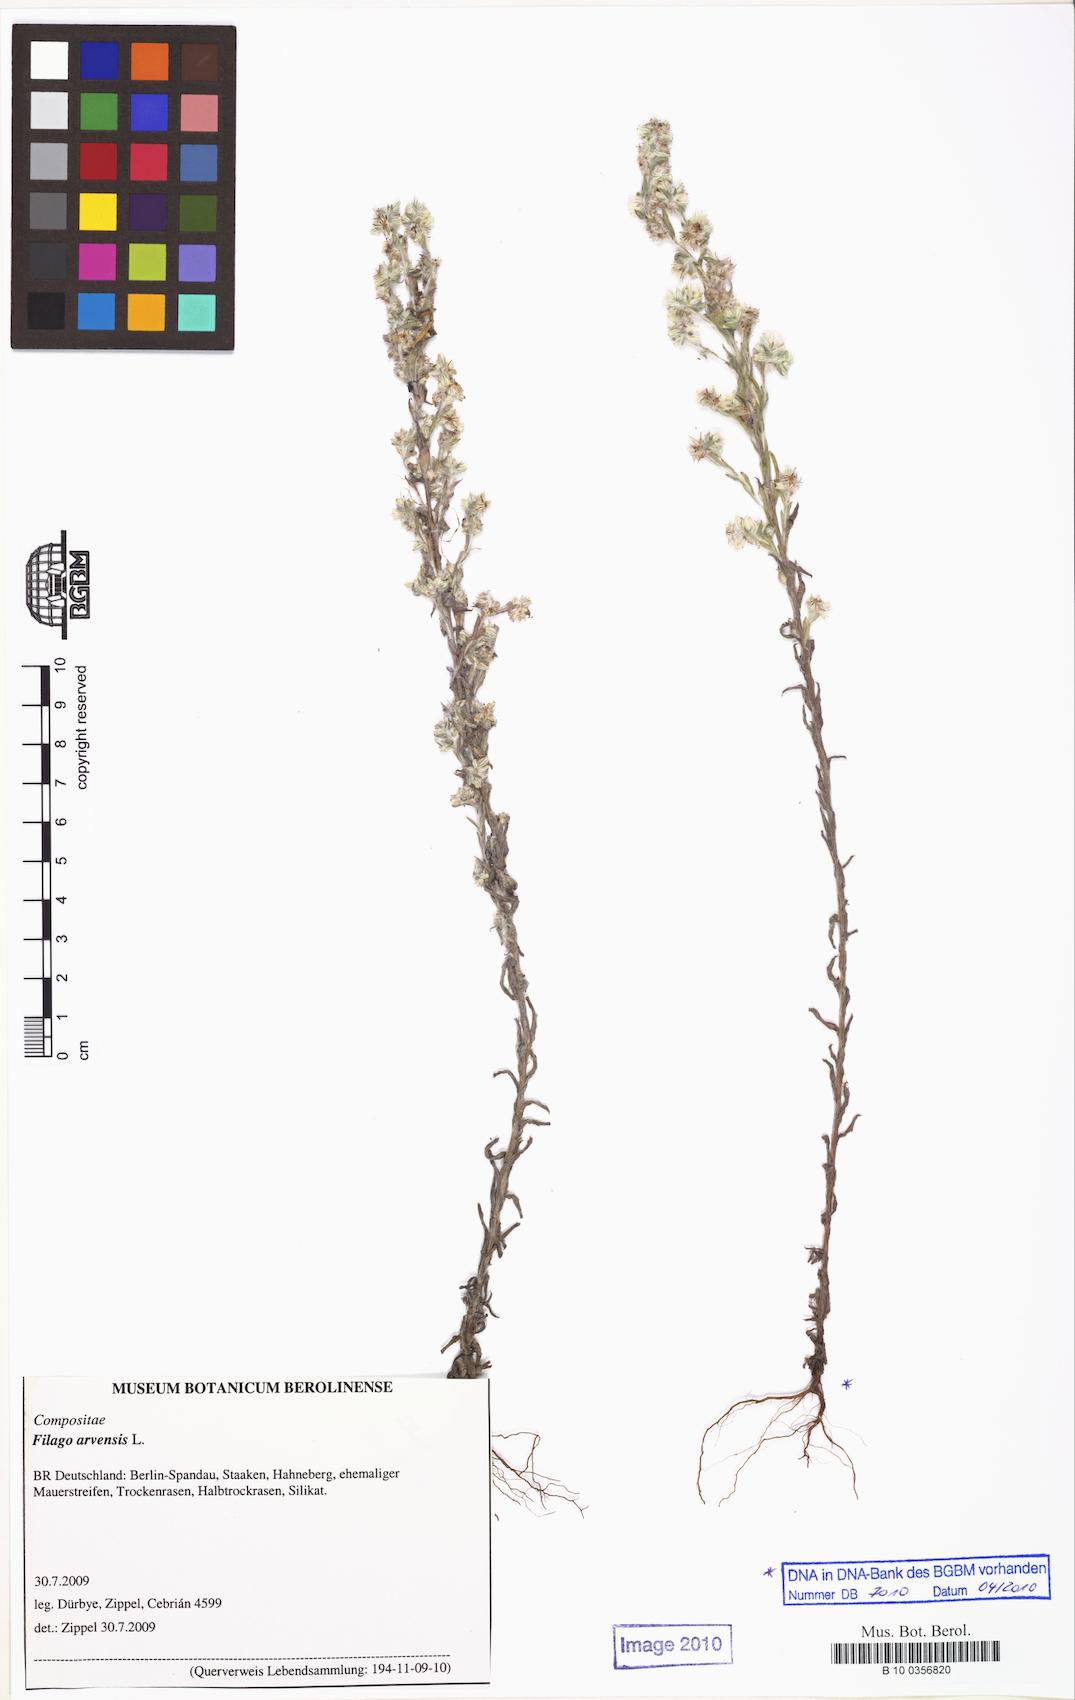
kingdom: Plantae
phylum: Tracheophyta
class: Magnoliopsida
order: Asterales
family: Asteraceae
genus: Filago
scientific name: Filago arvensis
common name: Field cudweed
